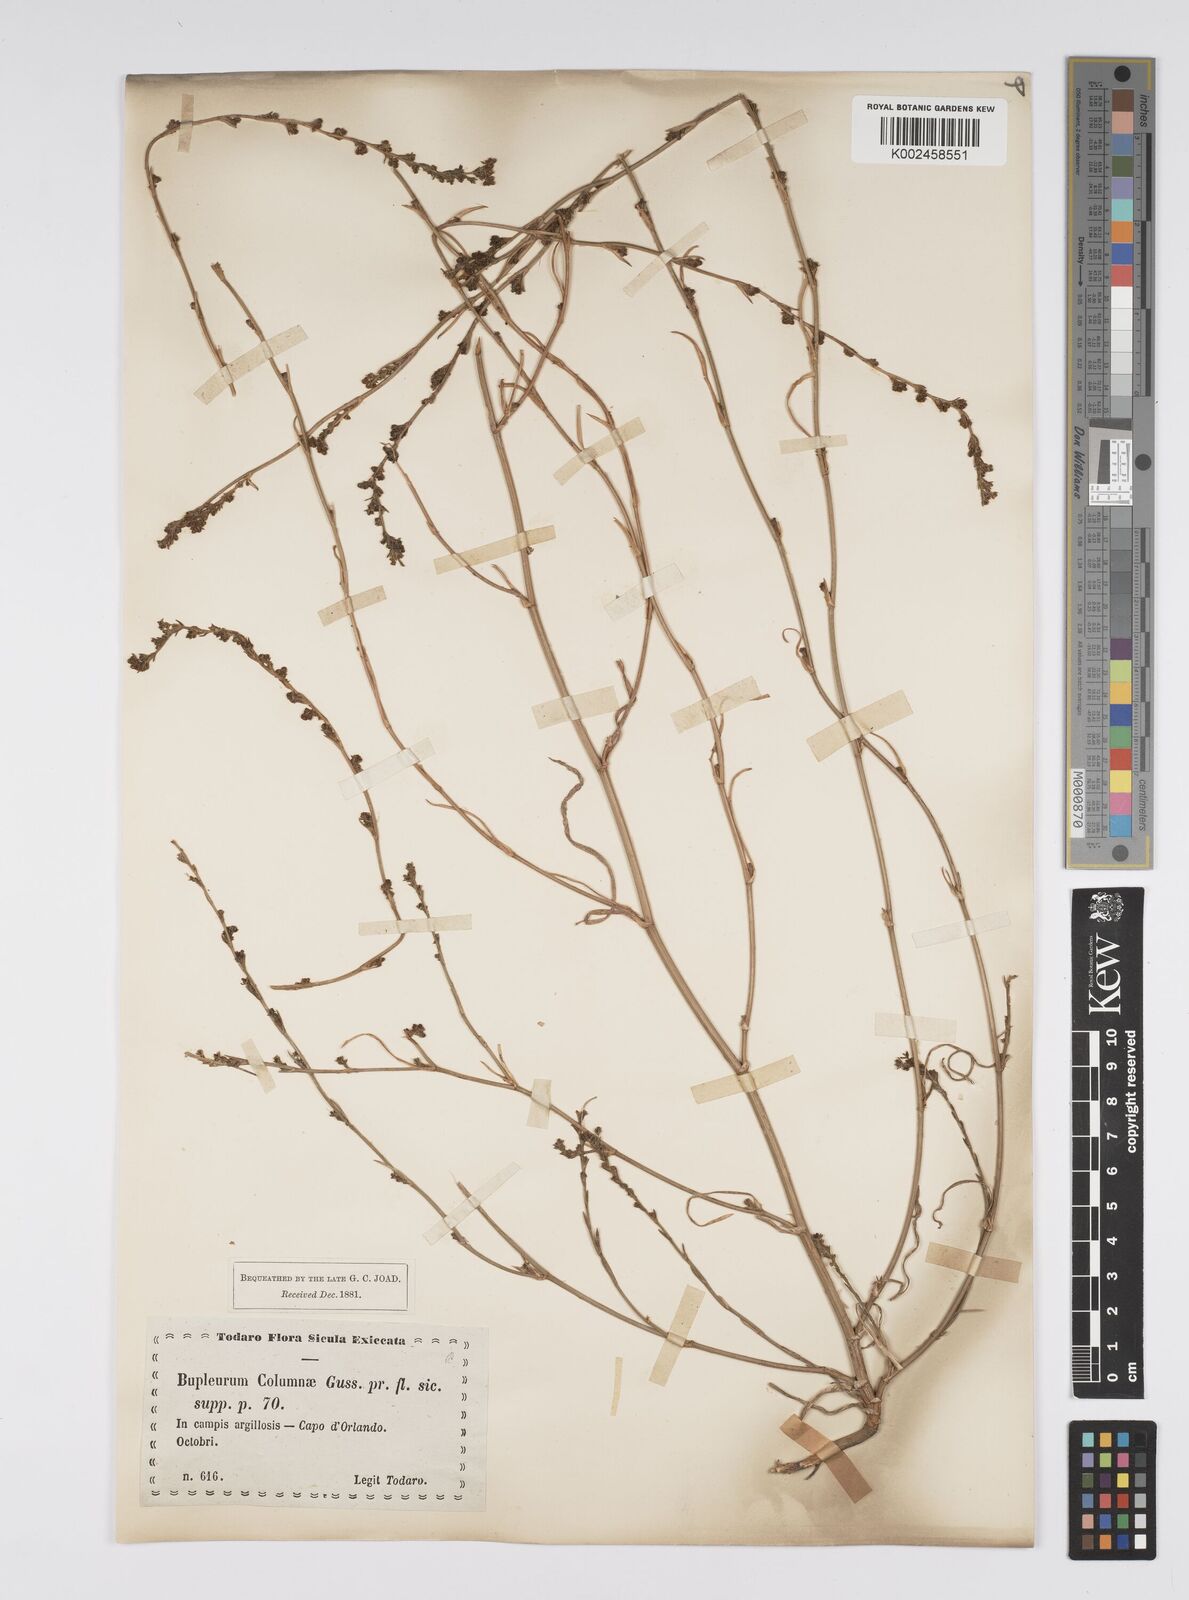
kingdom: Plantae
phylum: Tracheophyta
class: Magnoliopsida
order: Apiales
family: Apiaceae
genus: Bupleurum
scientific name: Bupleurum tenuissimum
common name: Slender hare's-ear
